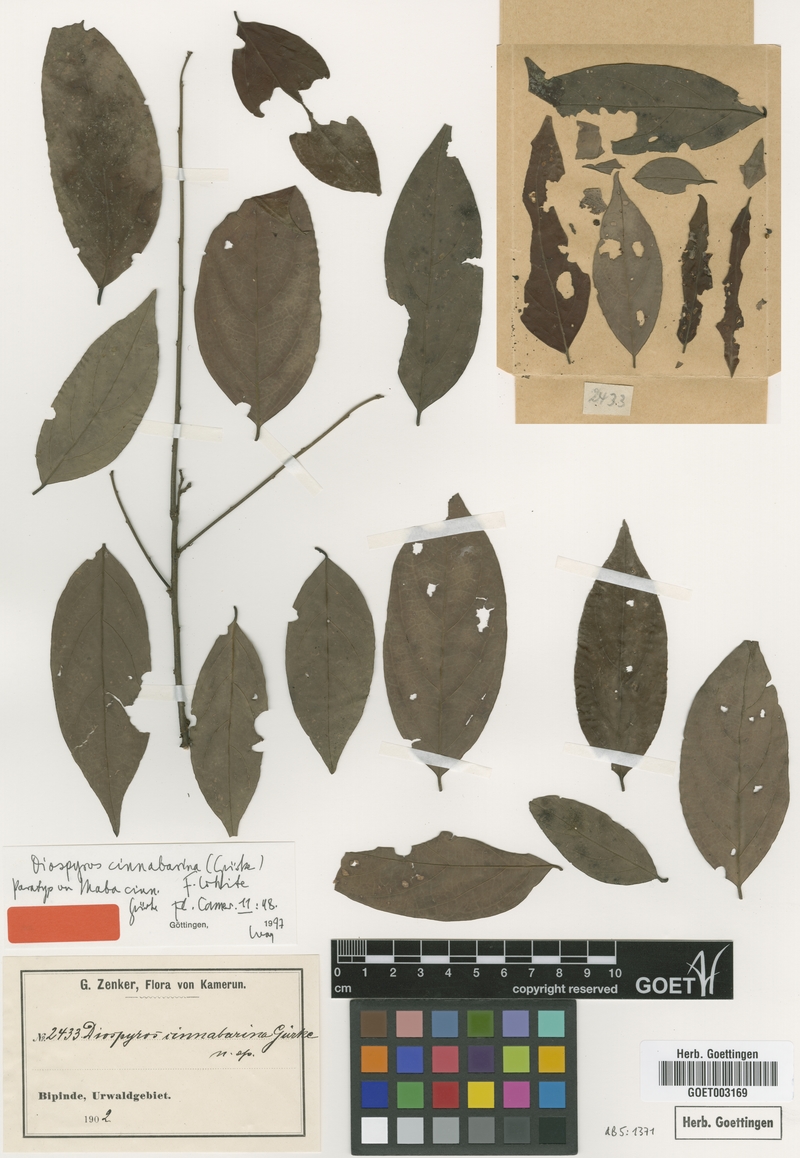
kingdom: Plantae
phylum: Tracheophyta
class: Magnoliopsida
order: Ericales
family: Ebenaceae
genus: Diospyros
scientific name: Diospyros cinnabarina
